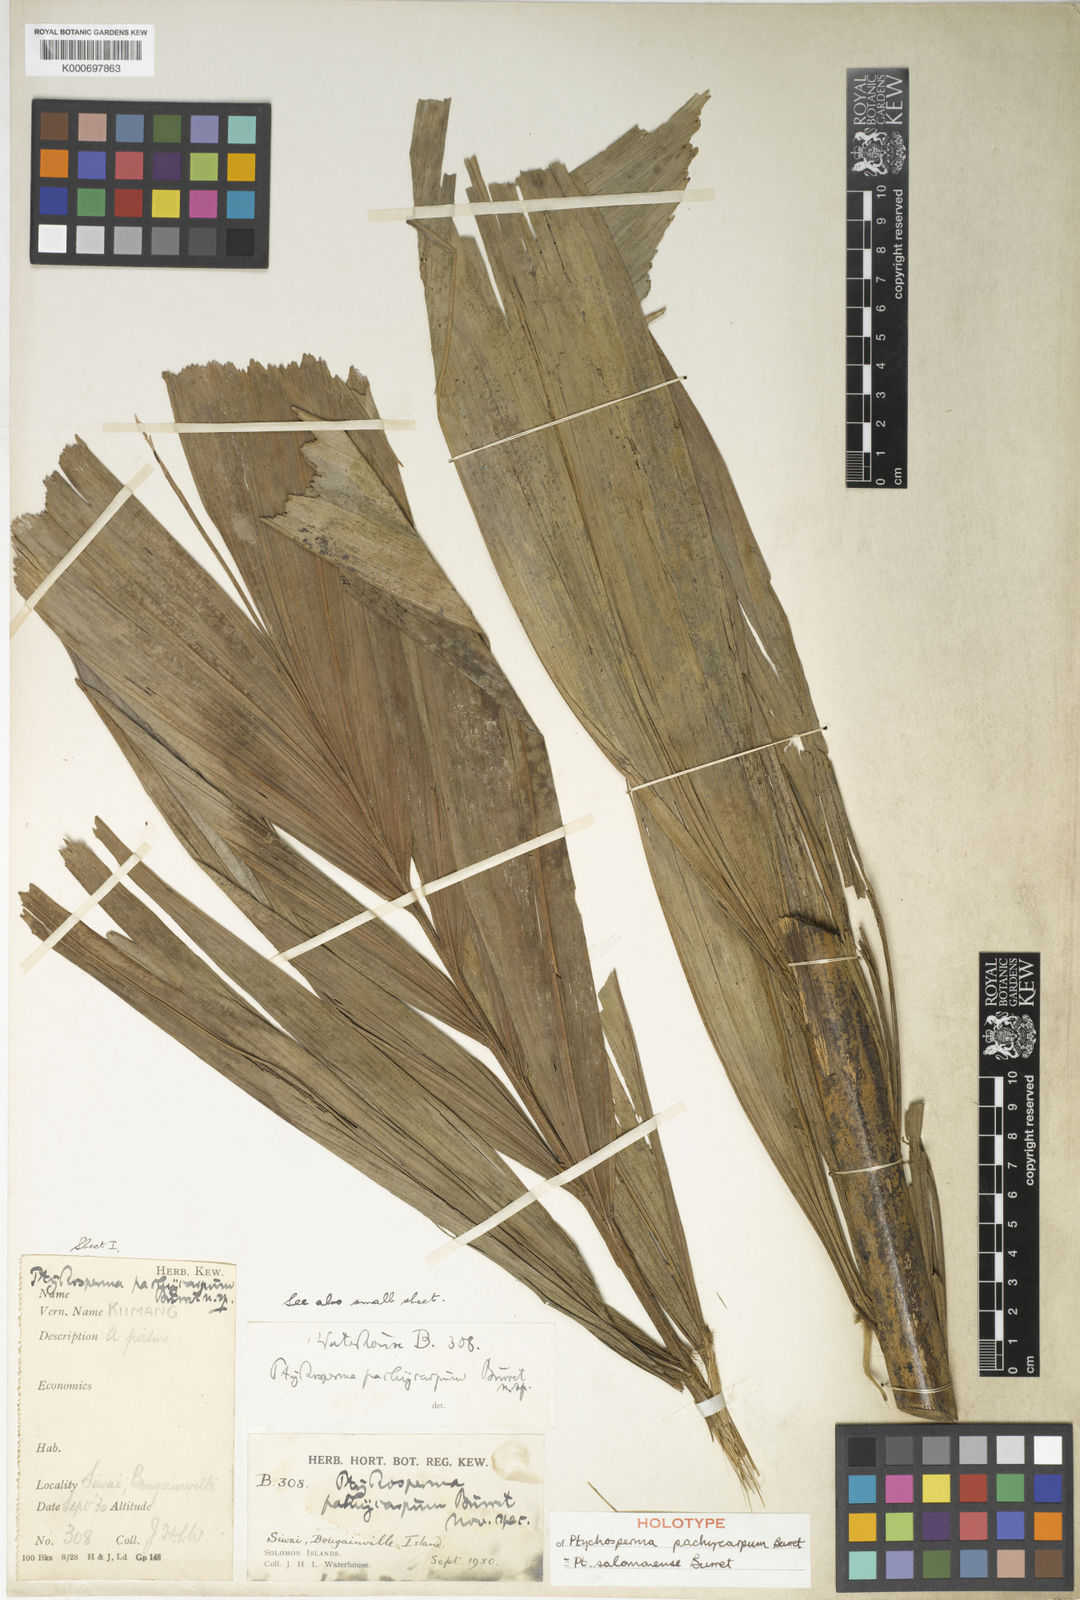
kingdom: Plantae
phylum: Tracheophyta
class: Liliopsida
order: Arecales
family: Arecaceae
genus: Ptychosperma
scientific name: Ptychosperma salomonense
